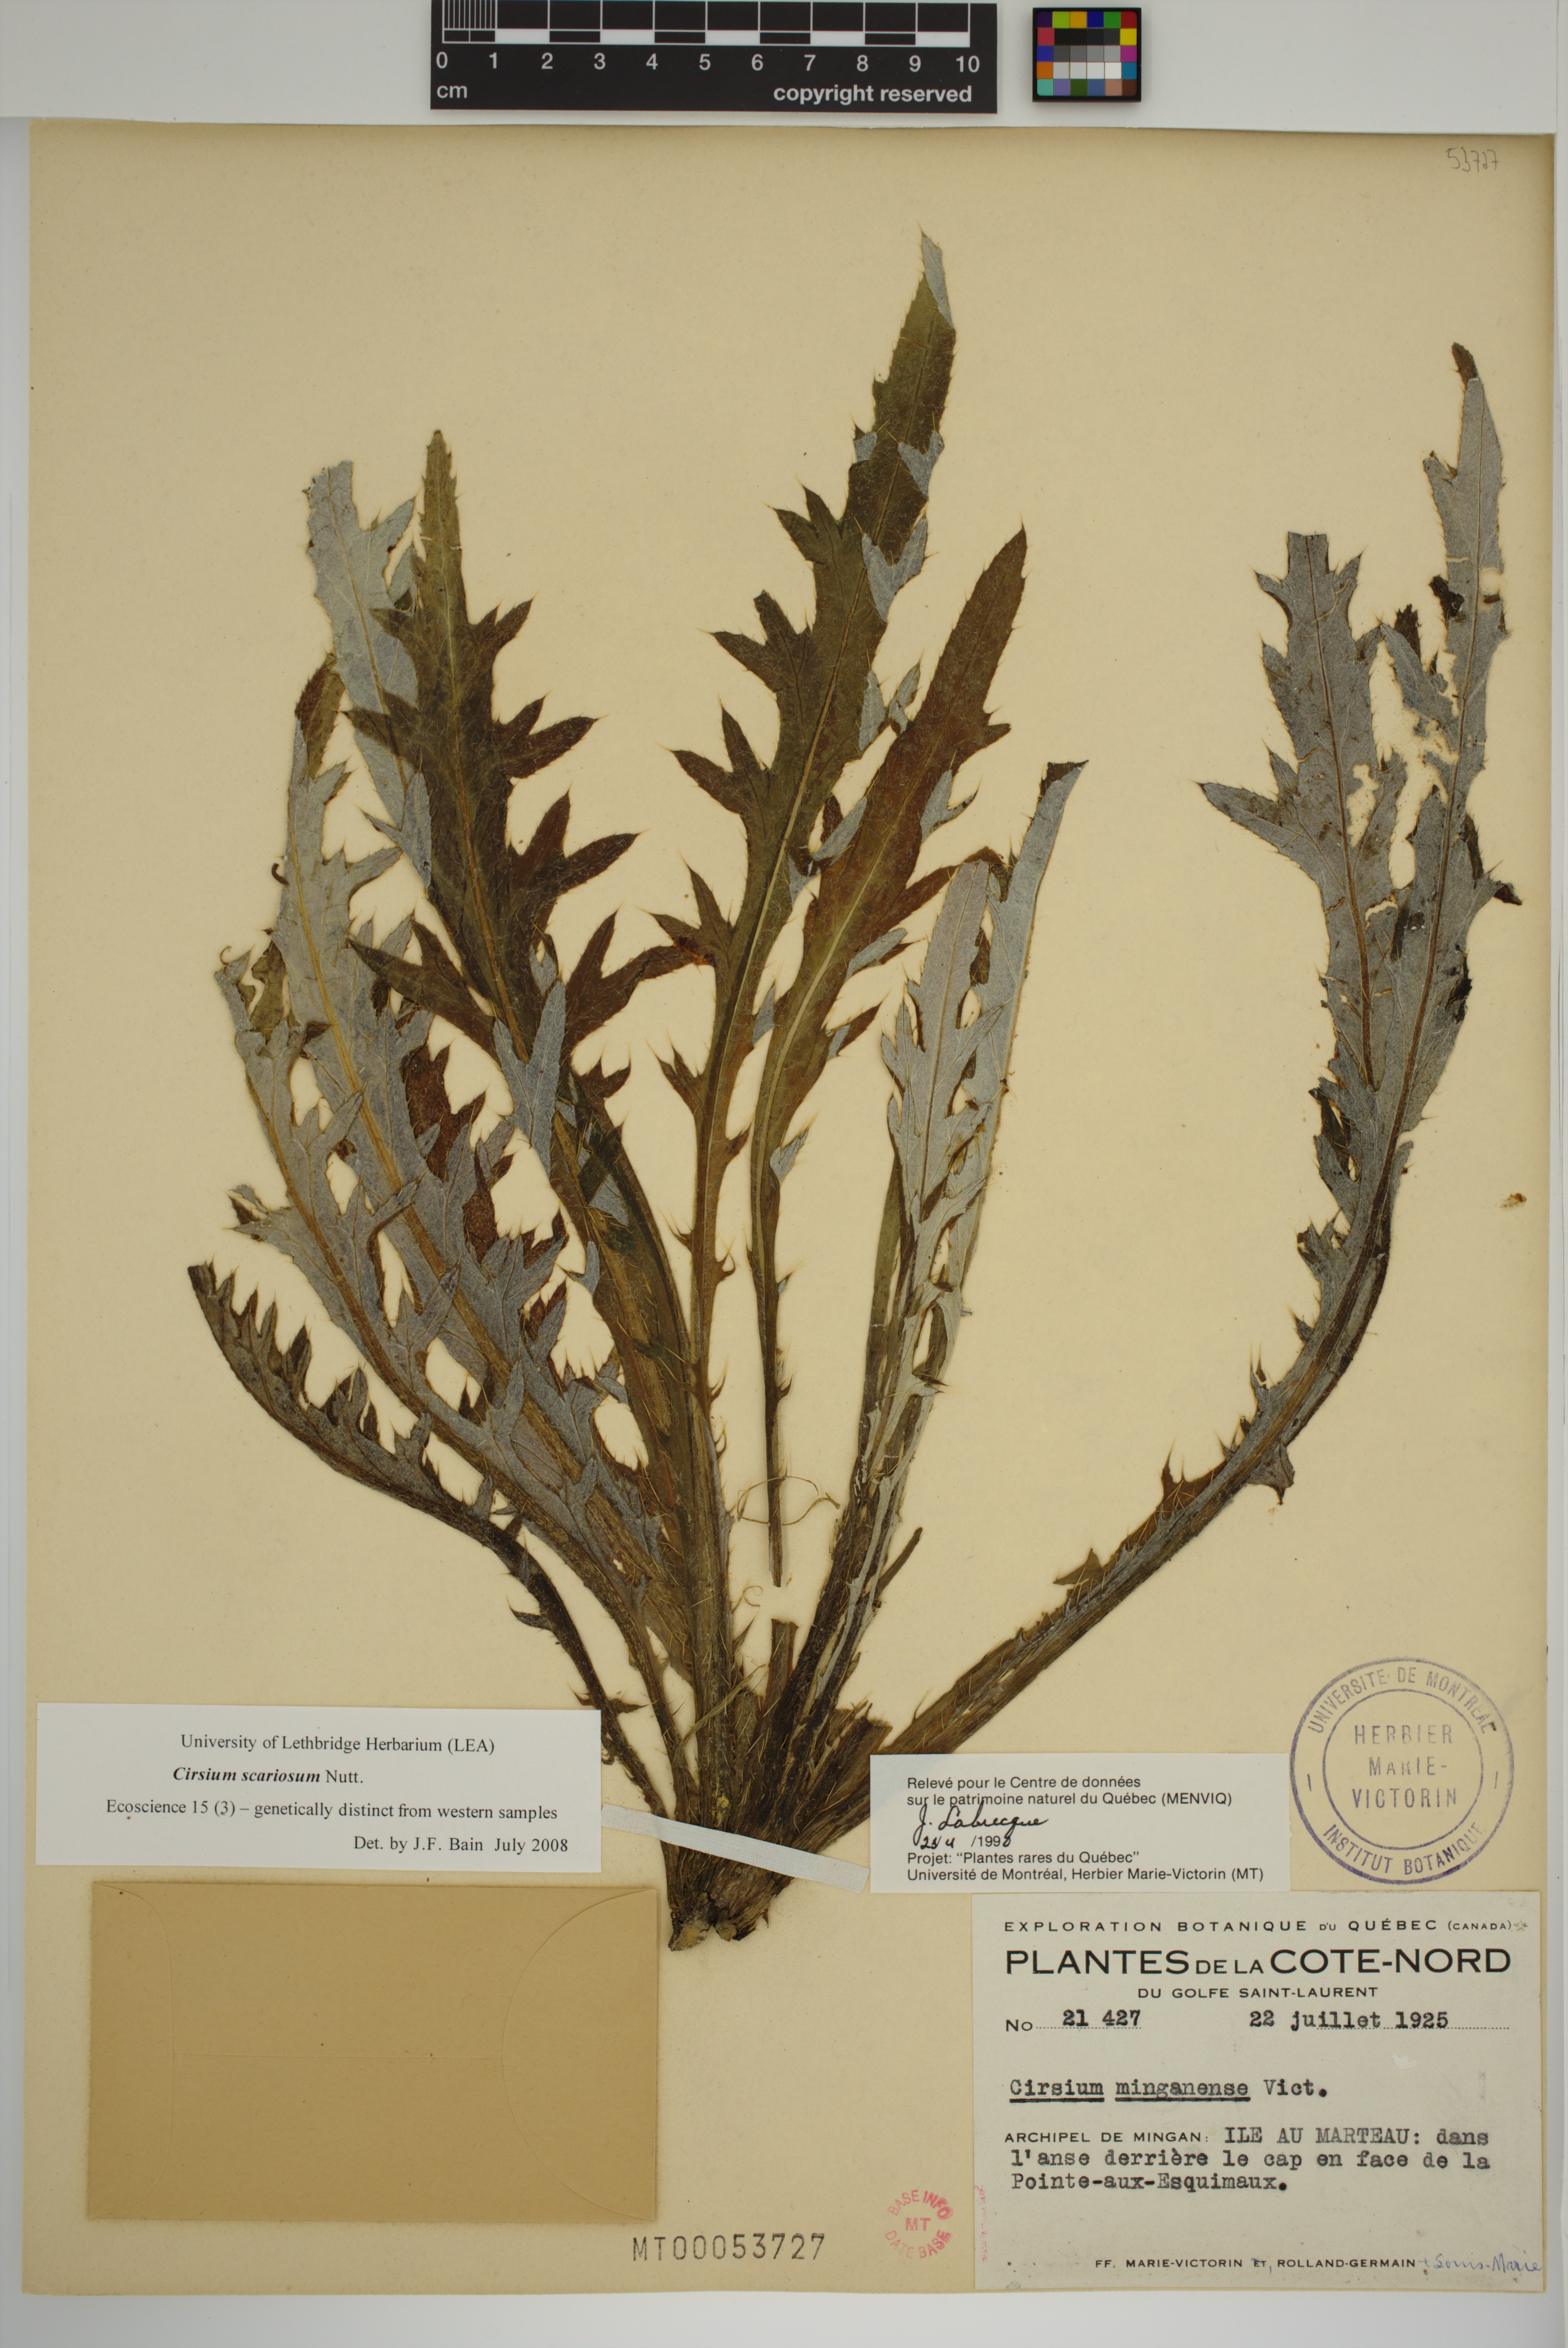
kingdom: Plantae
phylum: Tracheophyta
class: Magnoliopsida
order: Asterales
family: Asteraceae
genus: Cirsium
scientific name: Cirsium scariosum
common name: Meadow thistle
